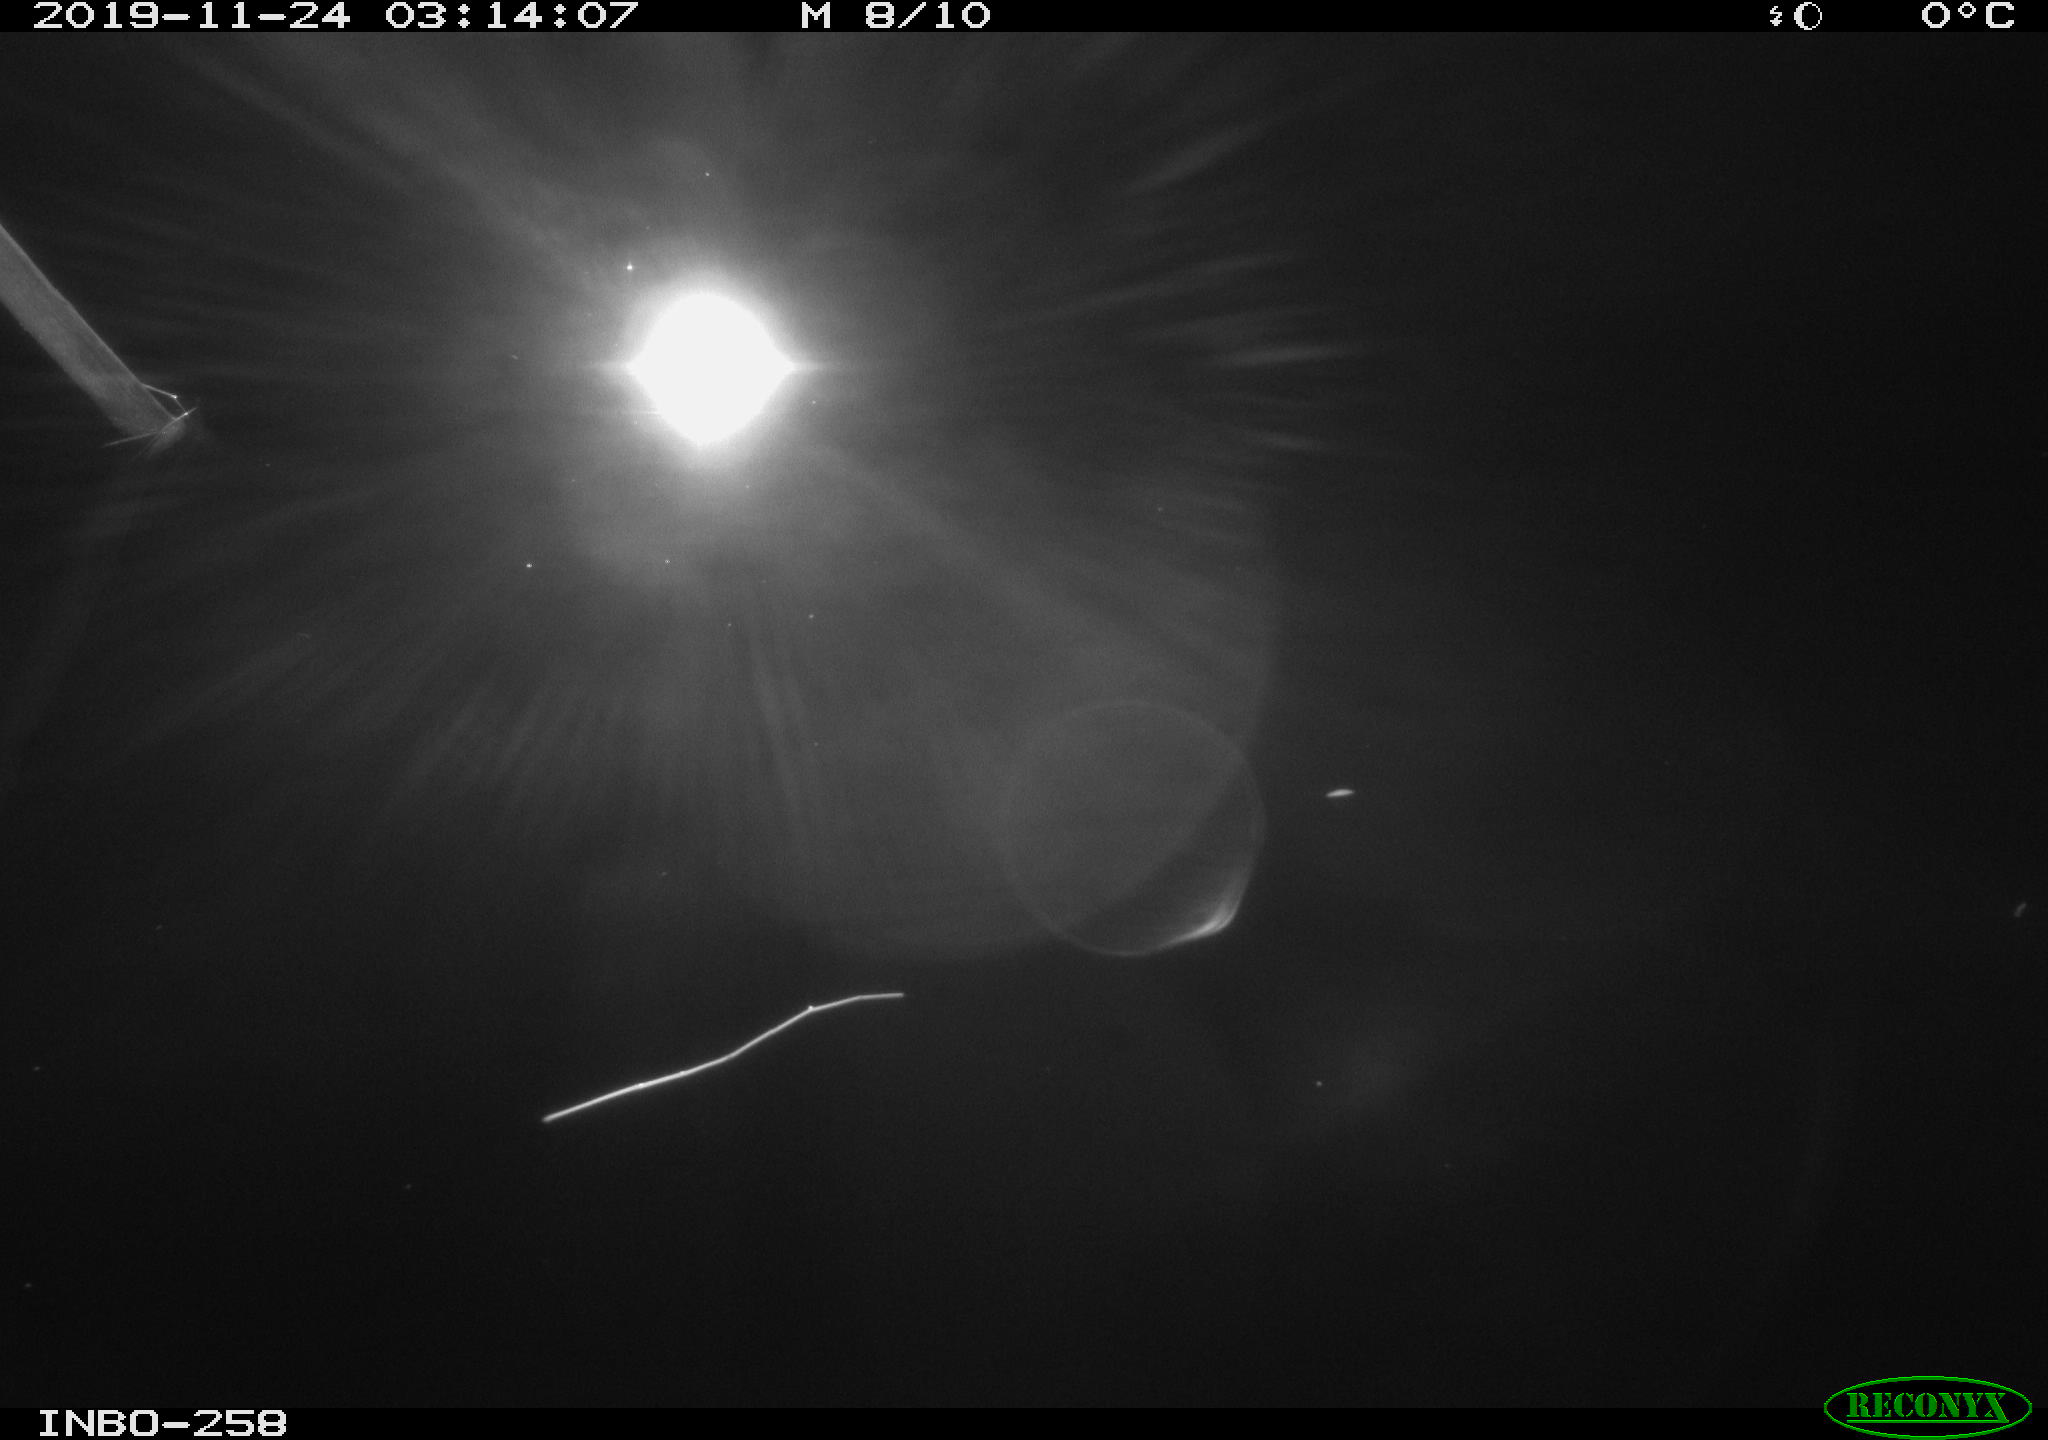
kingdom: Animalia
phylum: Chordata
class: Aves
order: Anseriformes
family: Anatidae
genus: Anas
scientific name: Anas platyrhynchos
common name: Mallard
